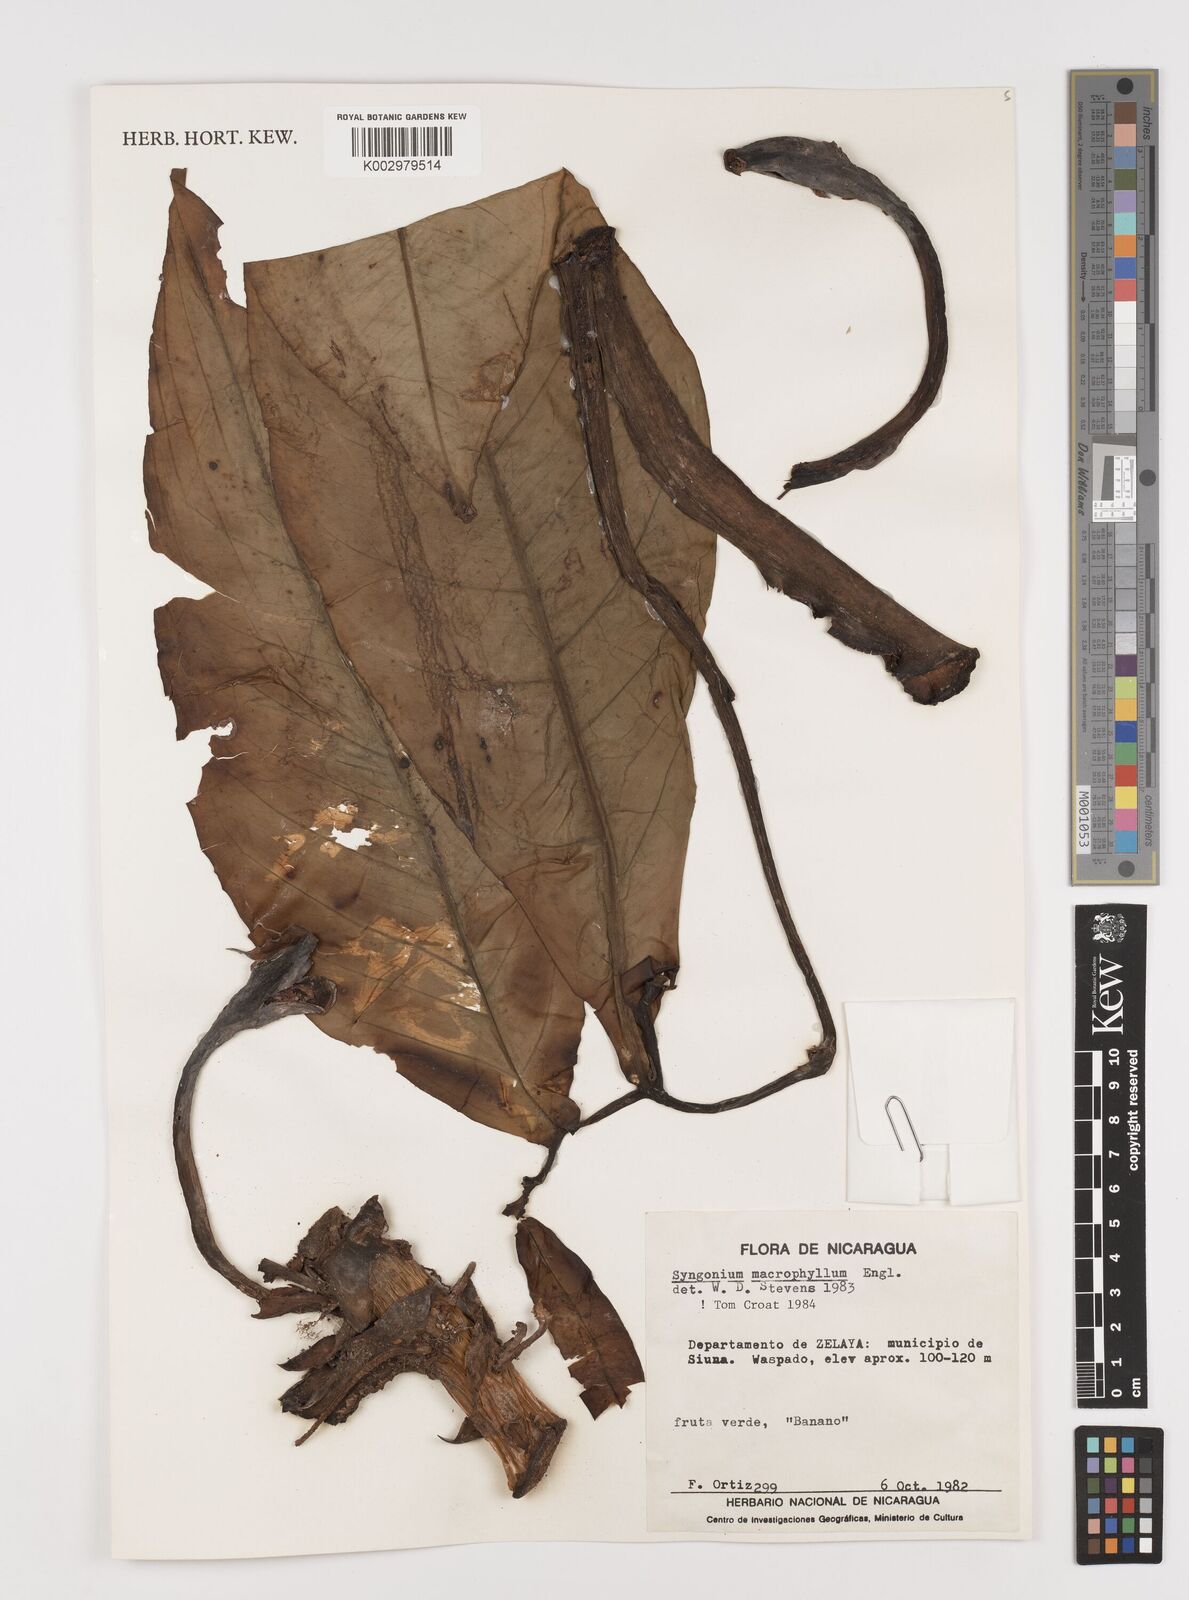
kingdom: Plantae
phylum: Tracheophyta
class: Liliopsida
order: Alismatales
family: Araceae
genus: Syngonium
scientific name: Syngonium macrophyllum
